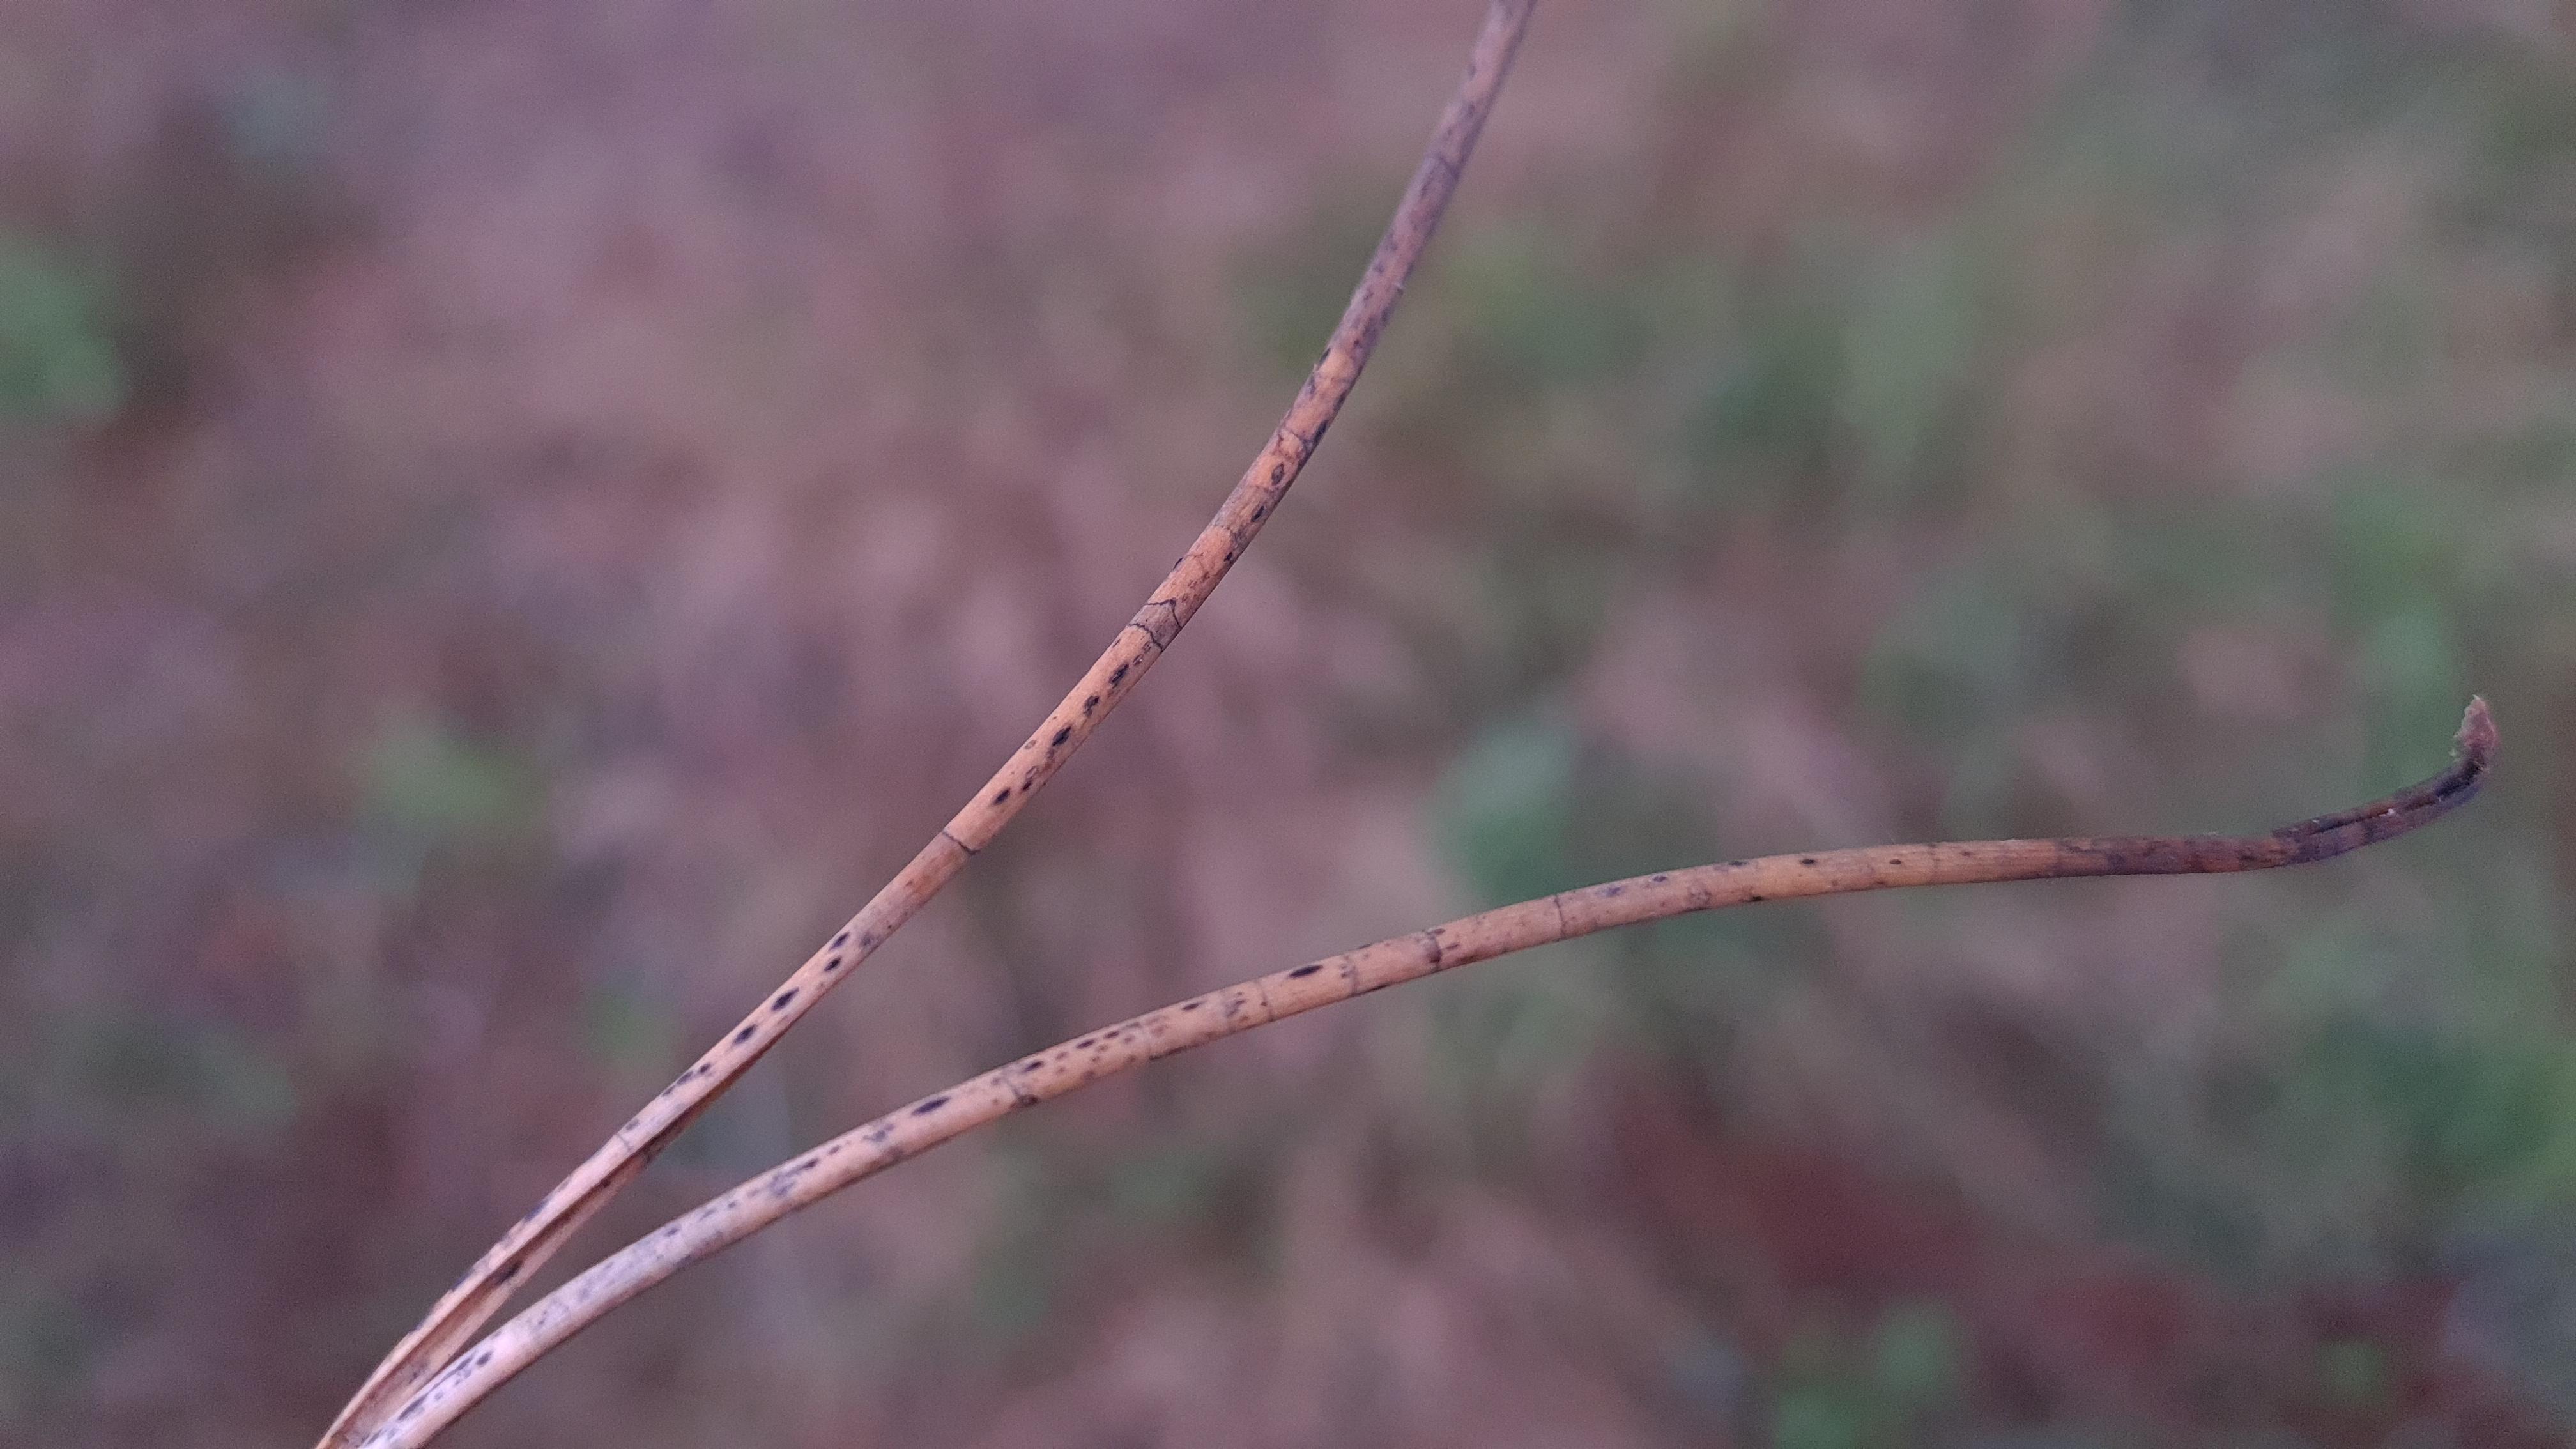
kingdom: Fungi
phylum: Ascomycota
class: Leotiomycetes
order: Rhytismatales
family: Rhytismataceae
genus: Lophodermium
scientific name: Lophodermium pinastri
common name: fyrre-fureplet
